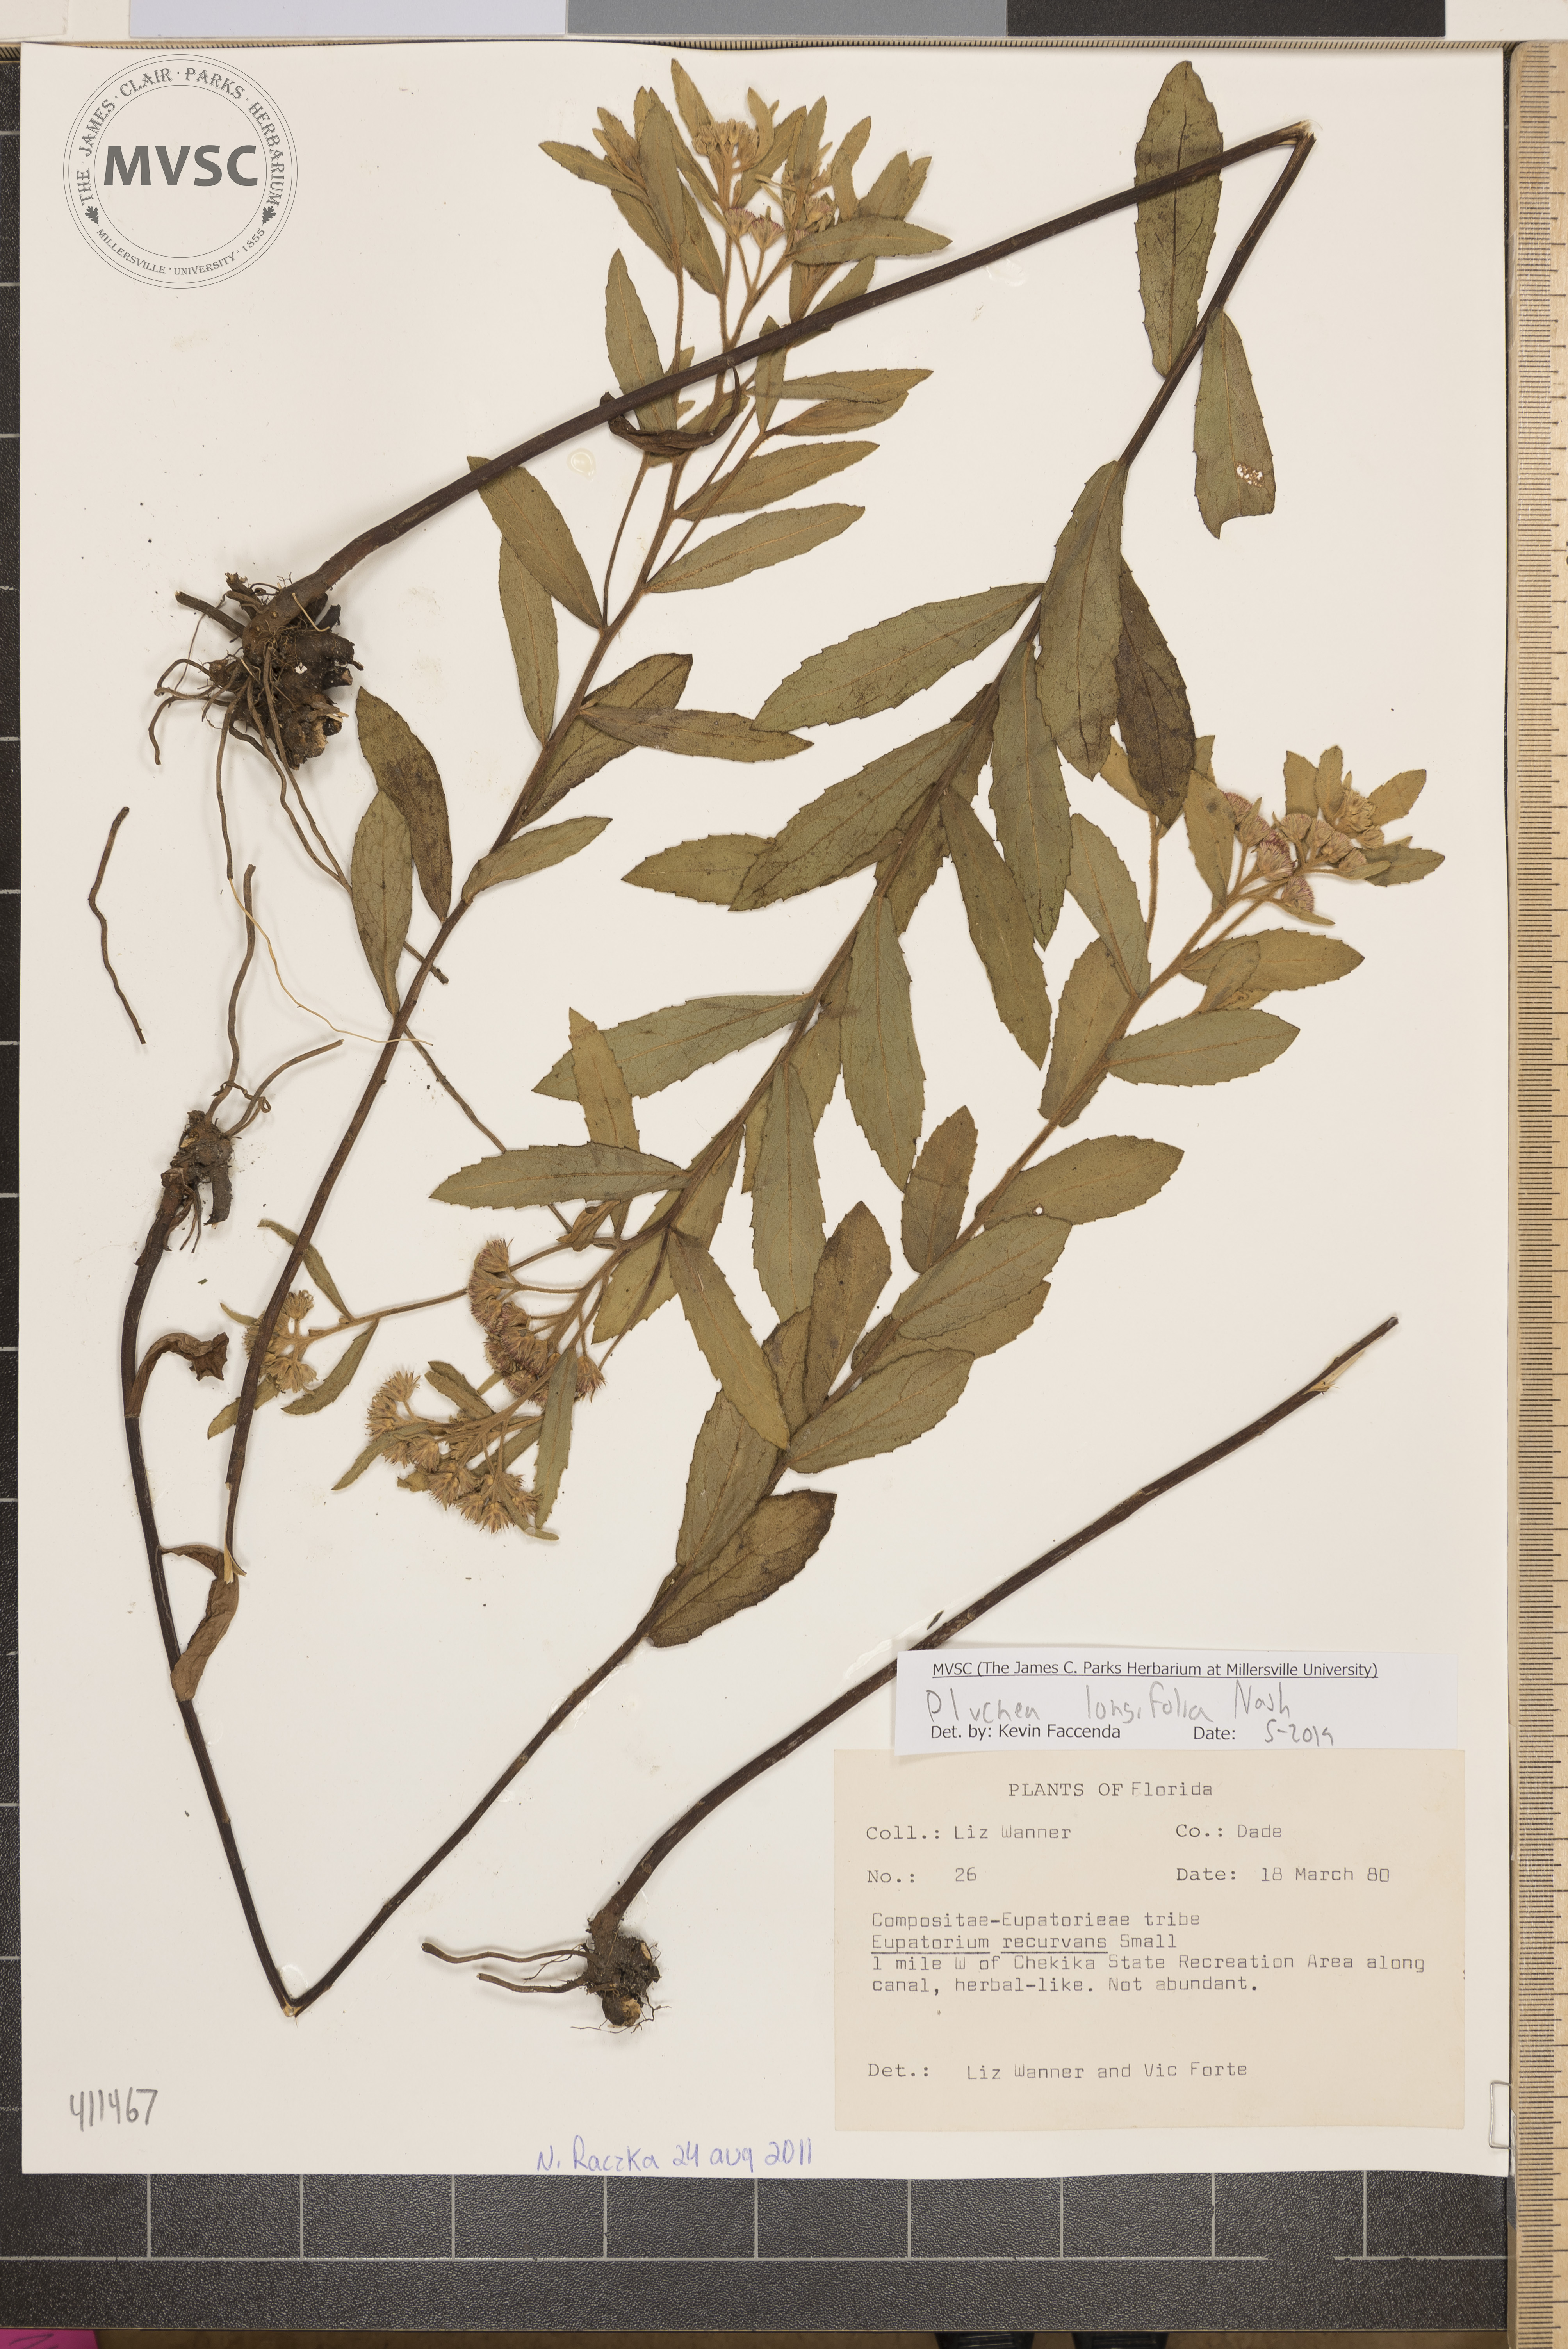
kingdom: Plantae
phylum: Tracheophyta
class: Magnoliopsida
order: Asterales
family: Asteraceae
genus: Pluchea
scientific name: Pluchea longifolia
